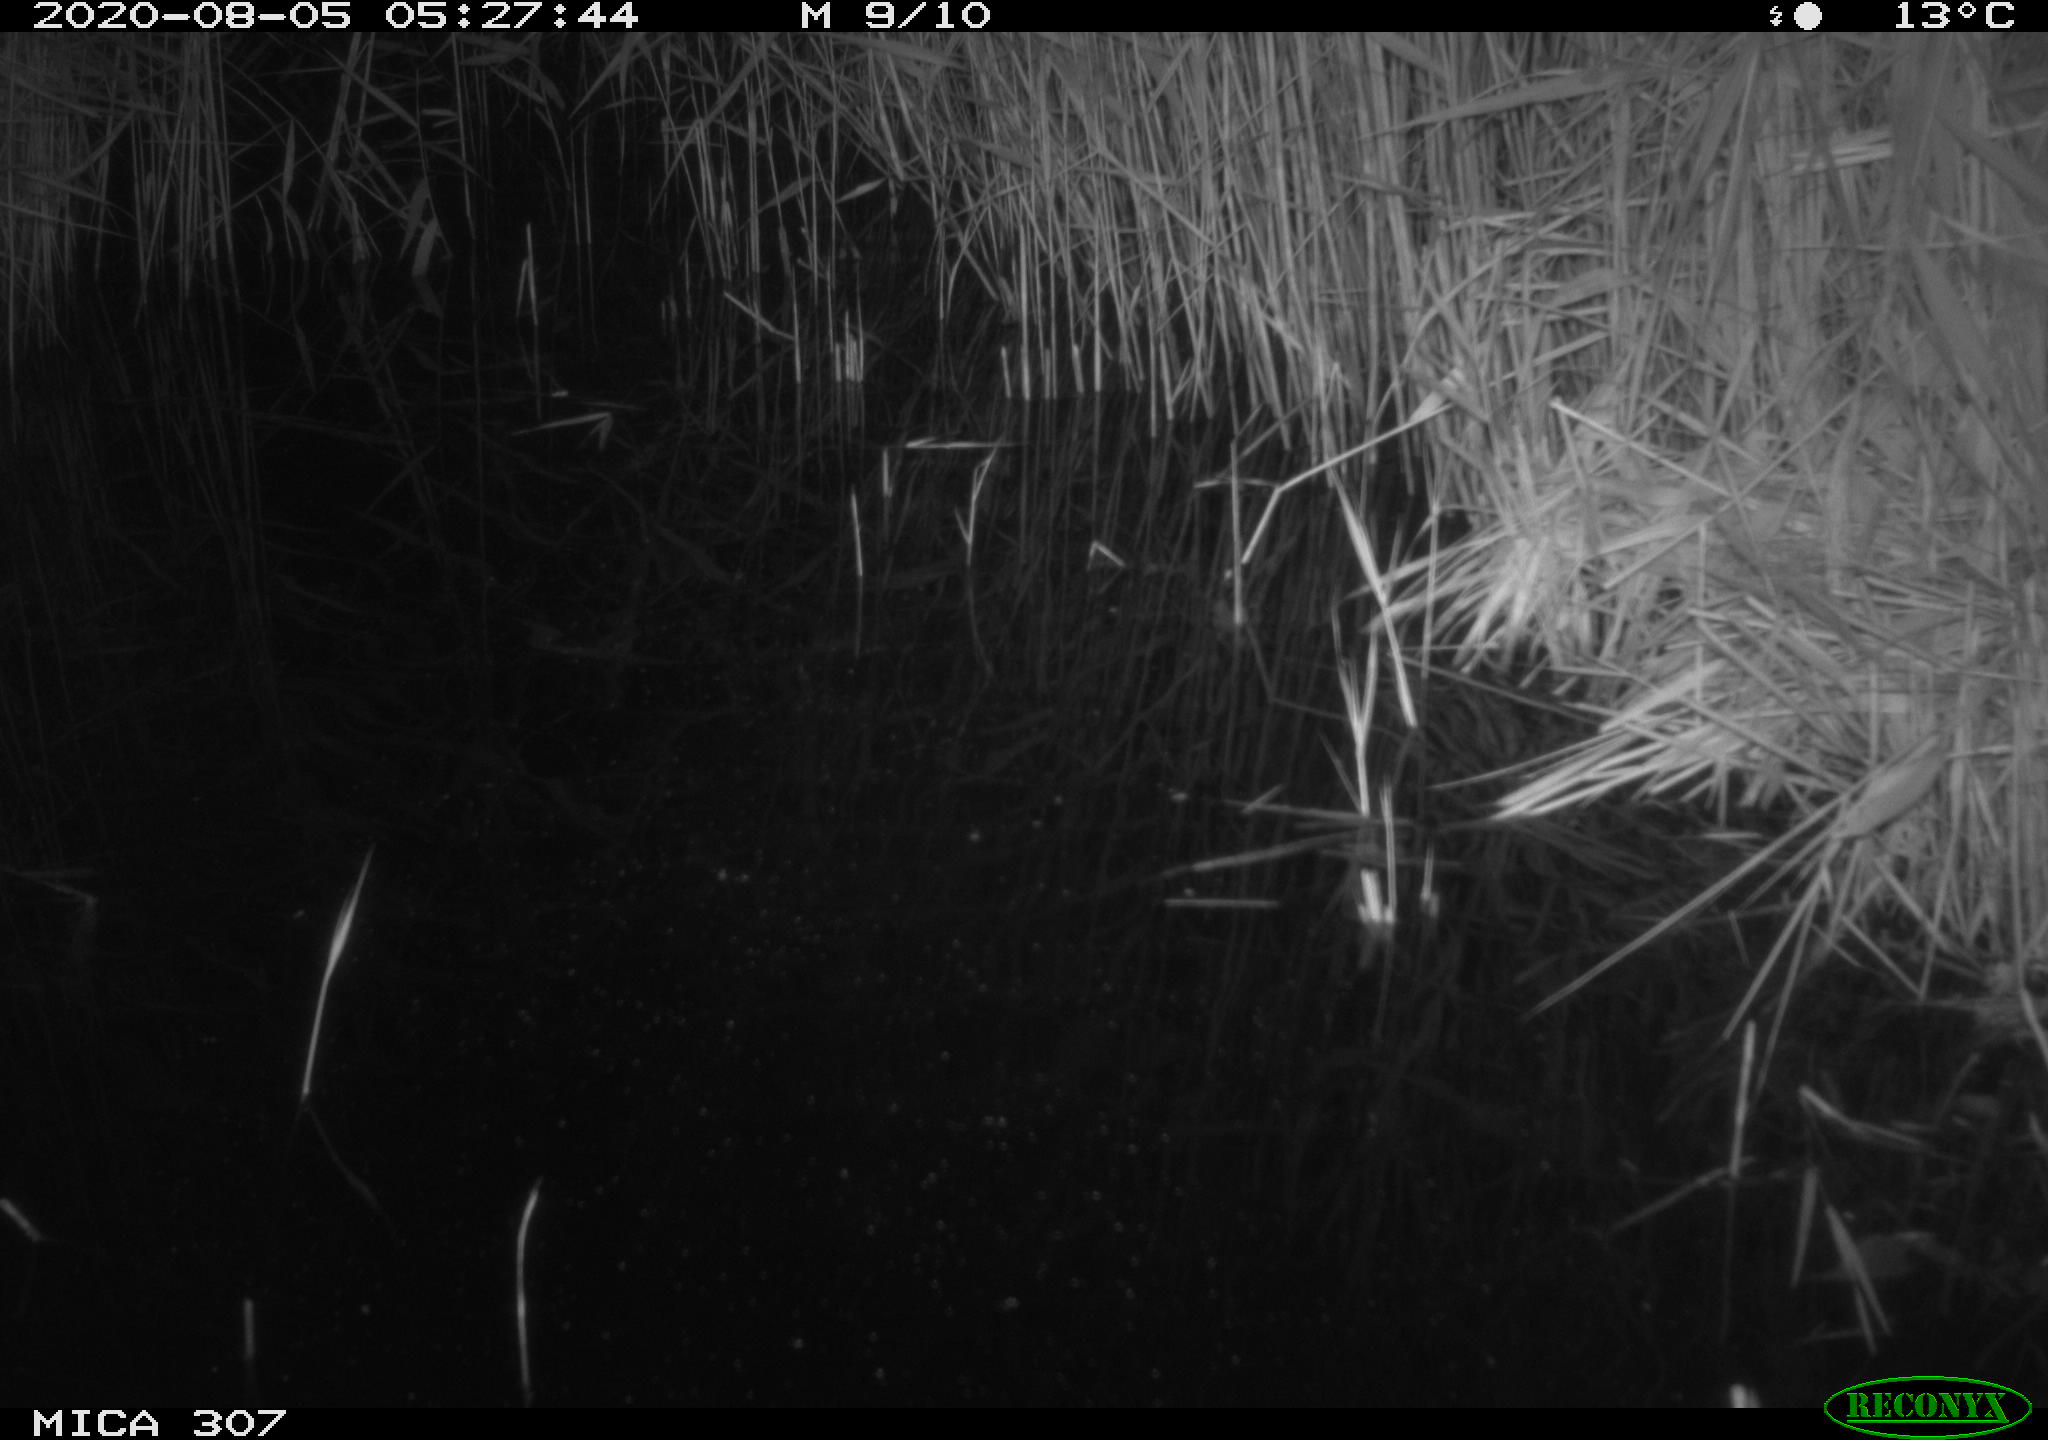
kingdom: Animalia
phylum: Chordata
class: Mammalia
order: Rodentia
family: Muridae
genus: Rattus
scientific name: Rattus norvegicus
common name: Brown rat
